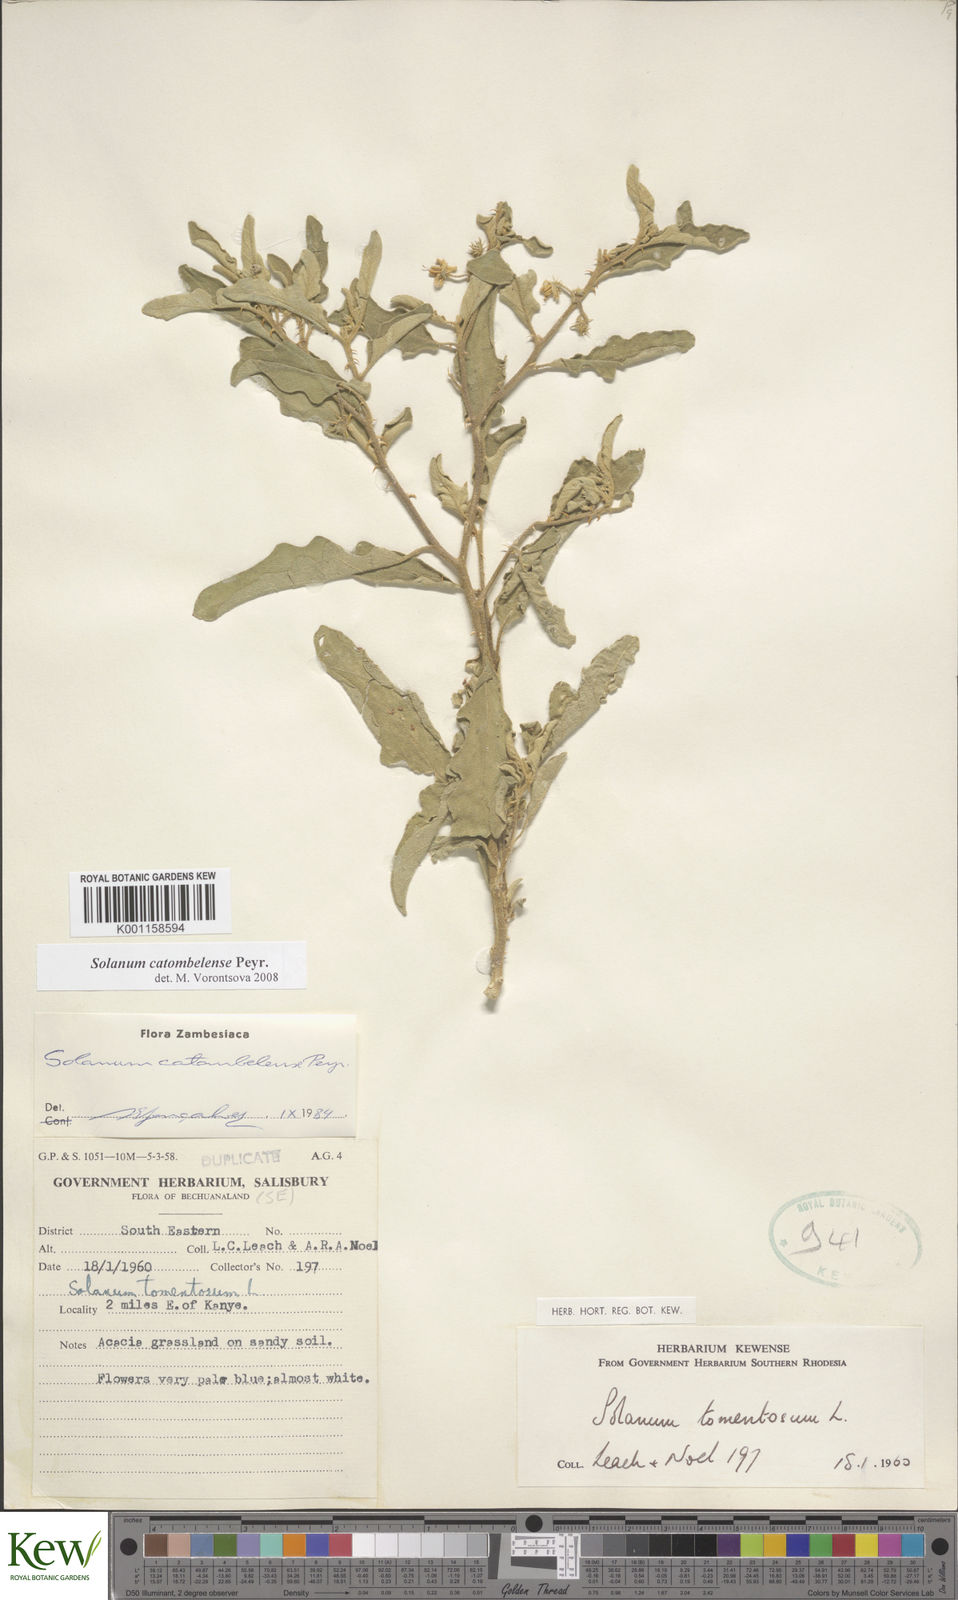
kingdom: Plantae
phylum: Tracheophyta
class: Magnoliopsida
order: Solanales
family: Solanaceae
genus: Solanum
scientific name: Solanum catombelense
